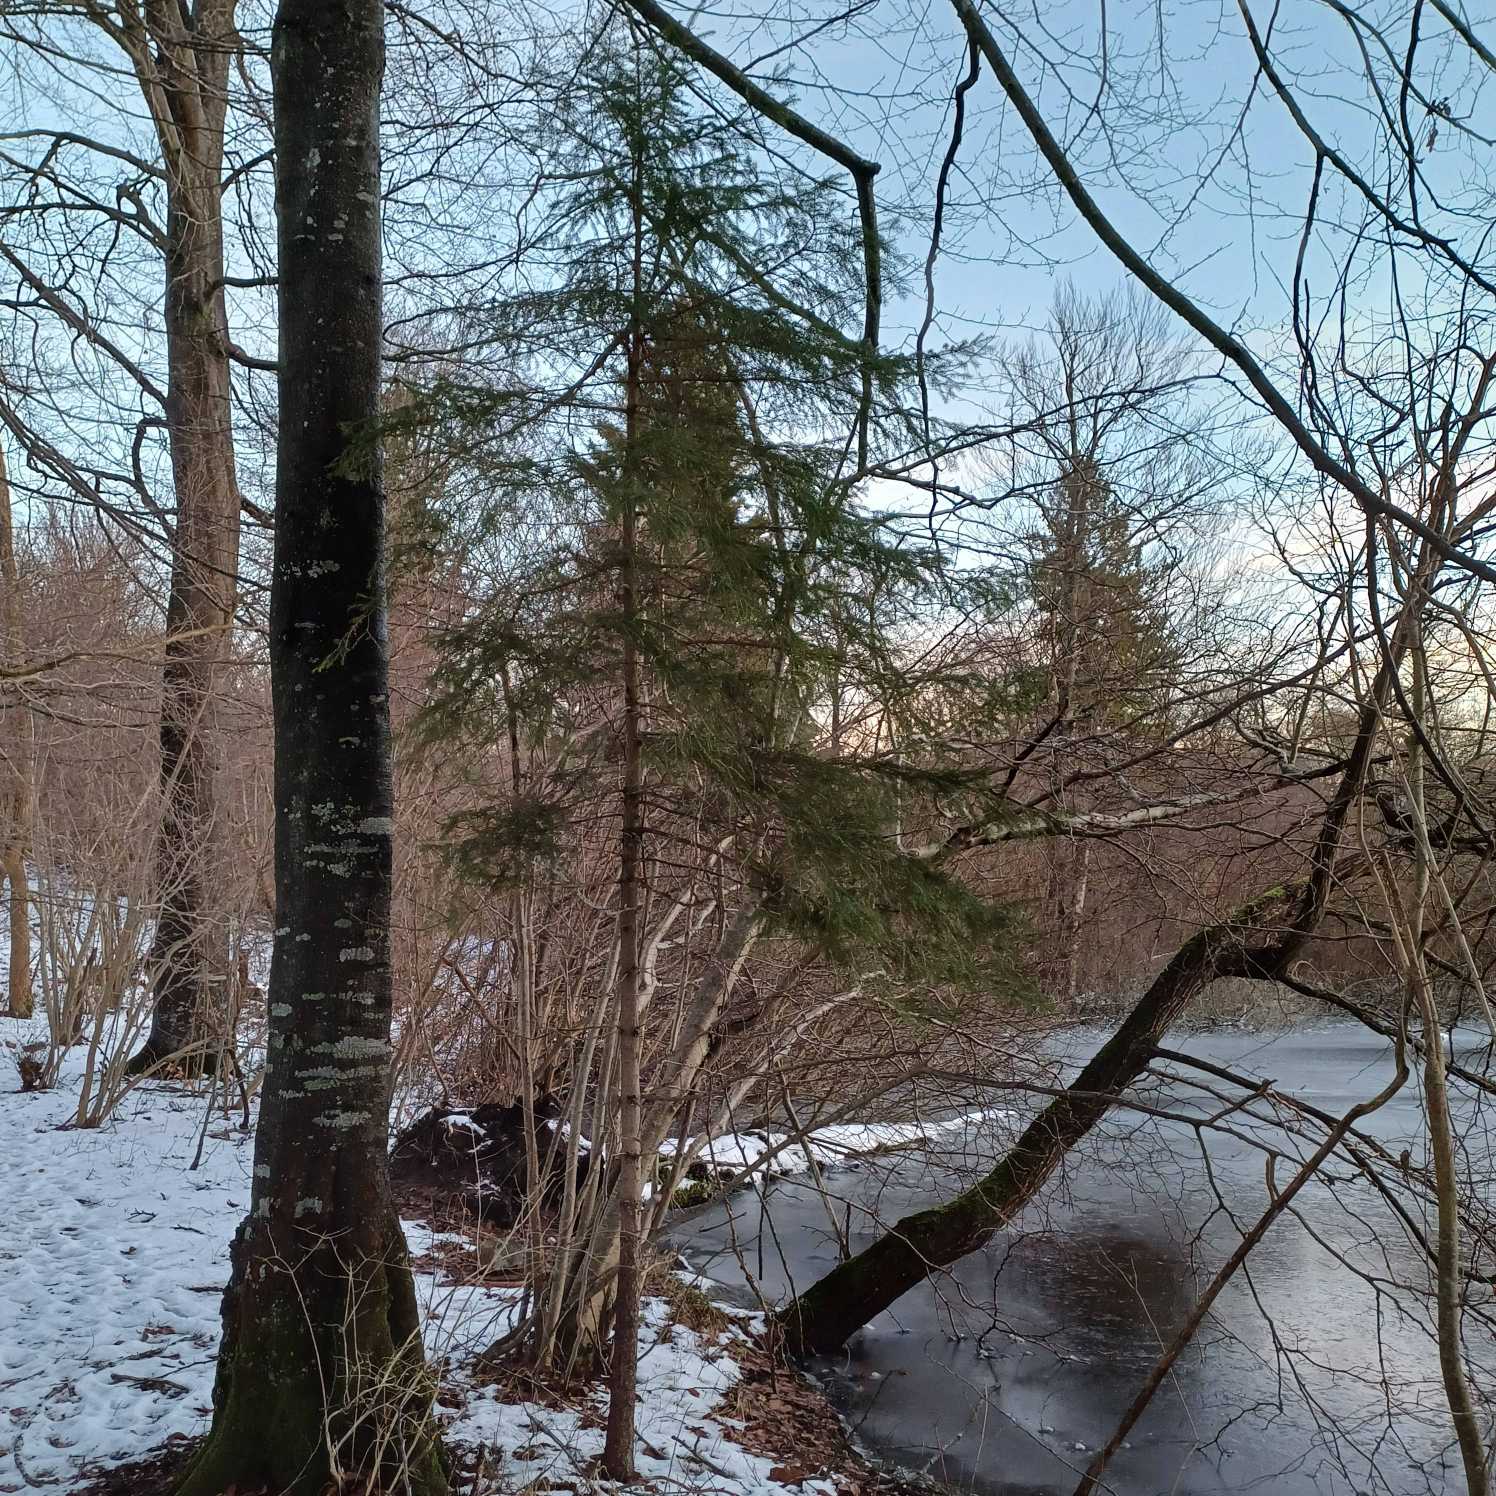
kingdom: Plantae
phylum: Tracheophyta
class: Pinopsida
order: Pinales
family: Pinaceae
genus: Picea
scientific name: Picea abies
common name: Rød-gran
